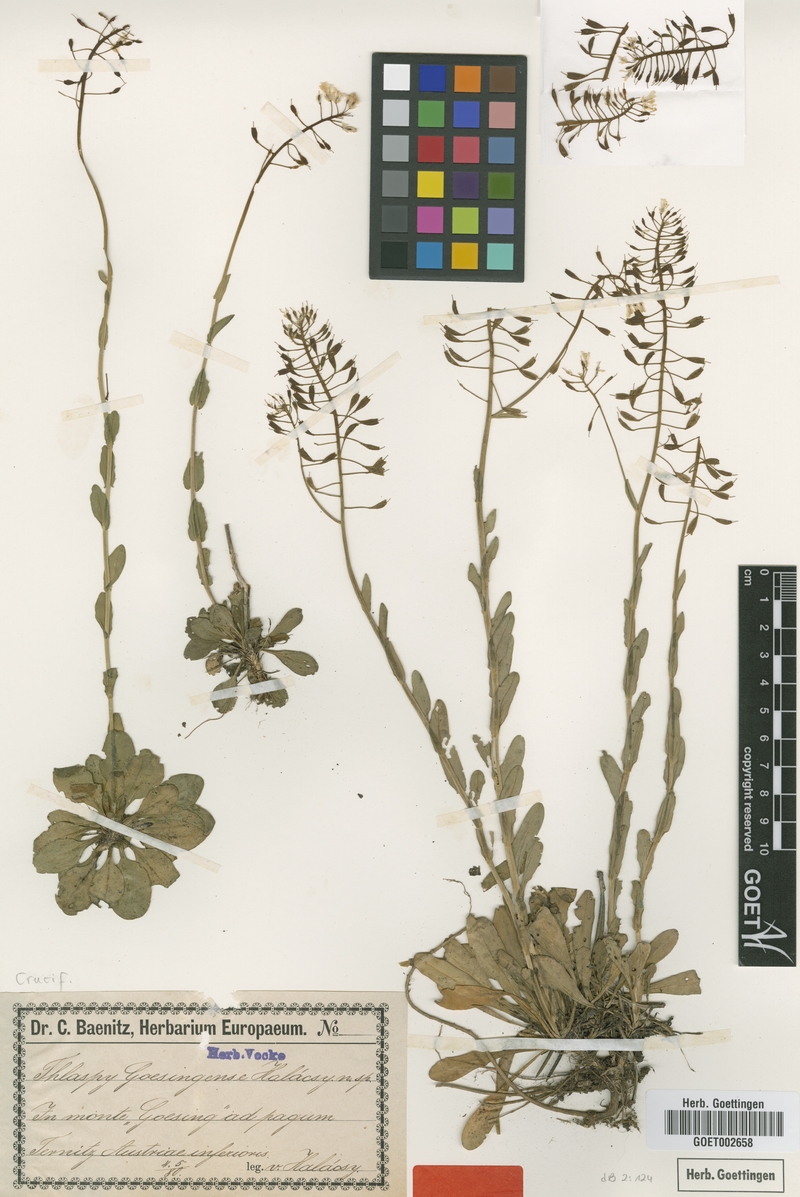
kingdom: Plantae
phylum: Tracheophyta
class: Magnoliopsida
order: Brassicales
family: Brassicaceae
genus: Noccaea
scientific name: Noccaea goesingensis
